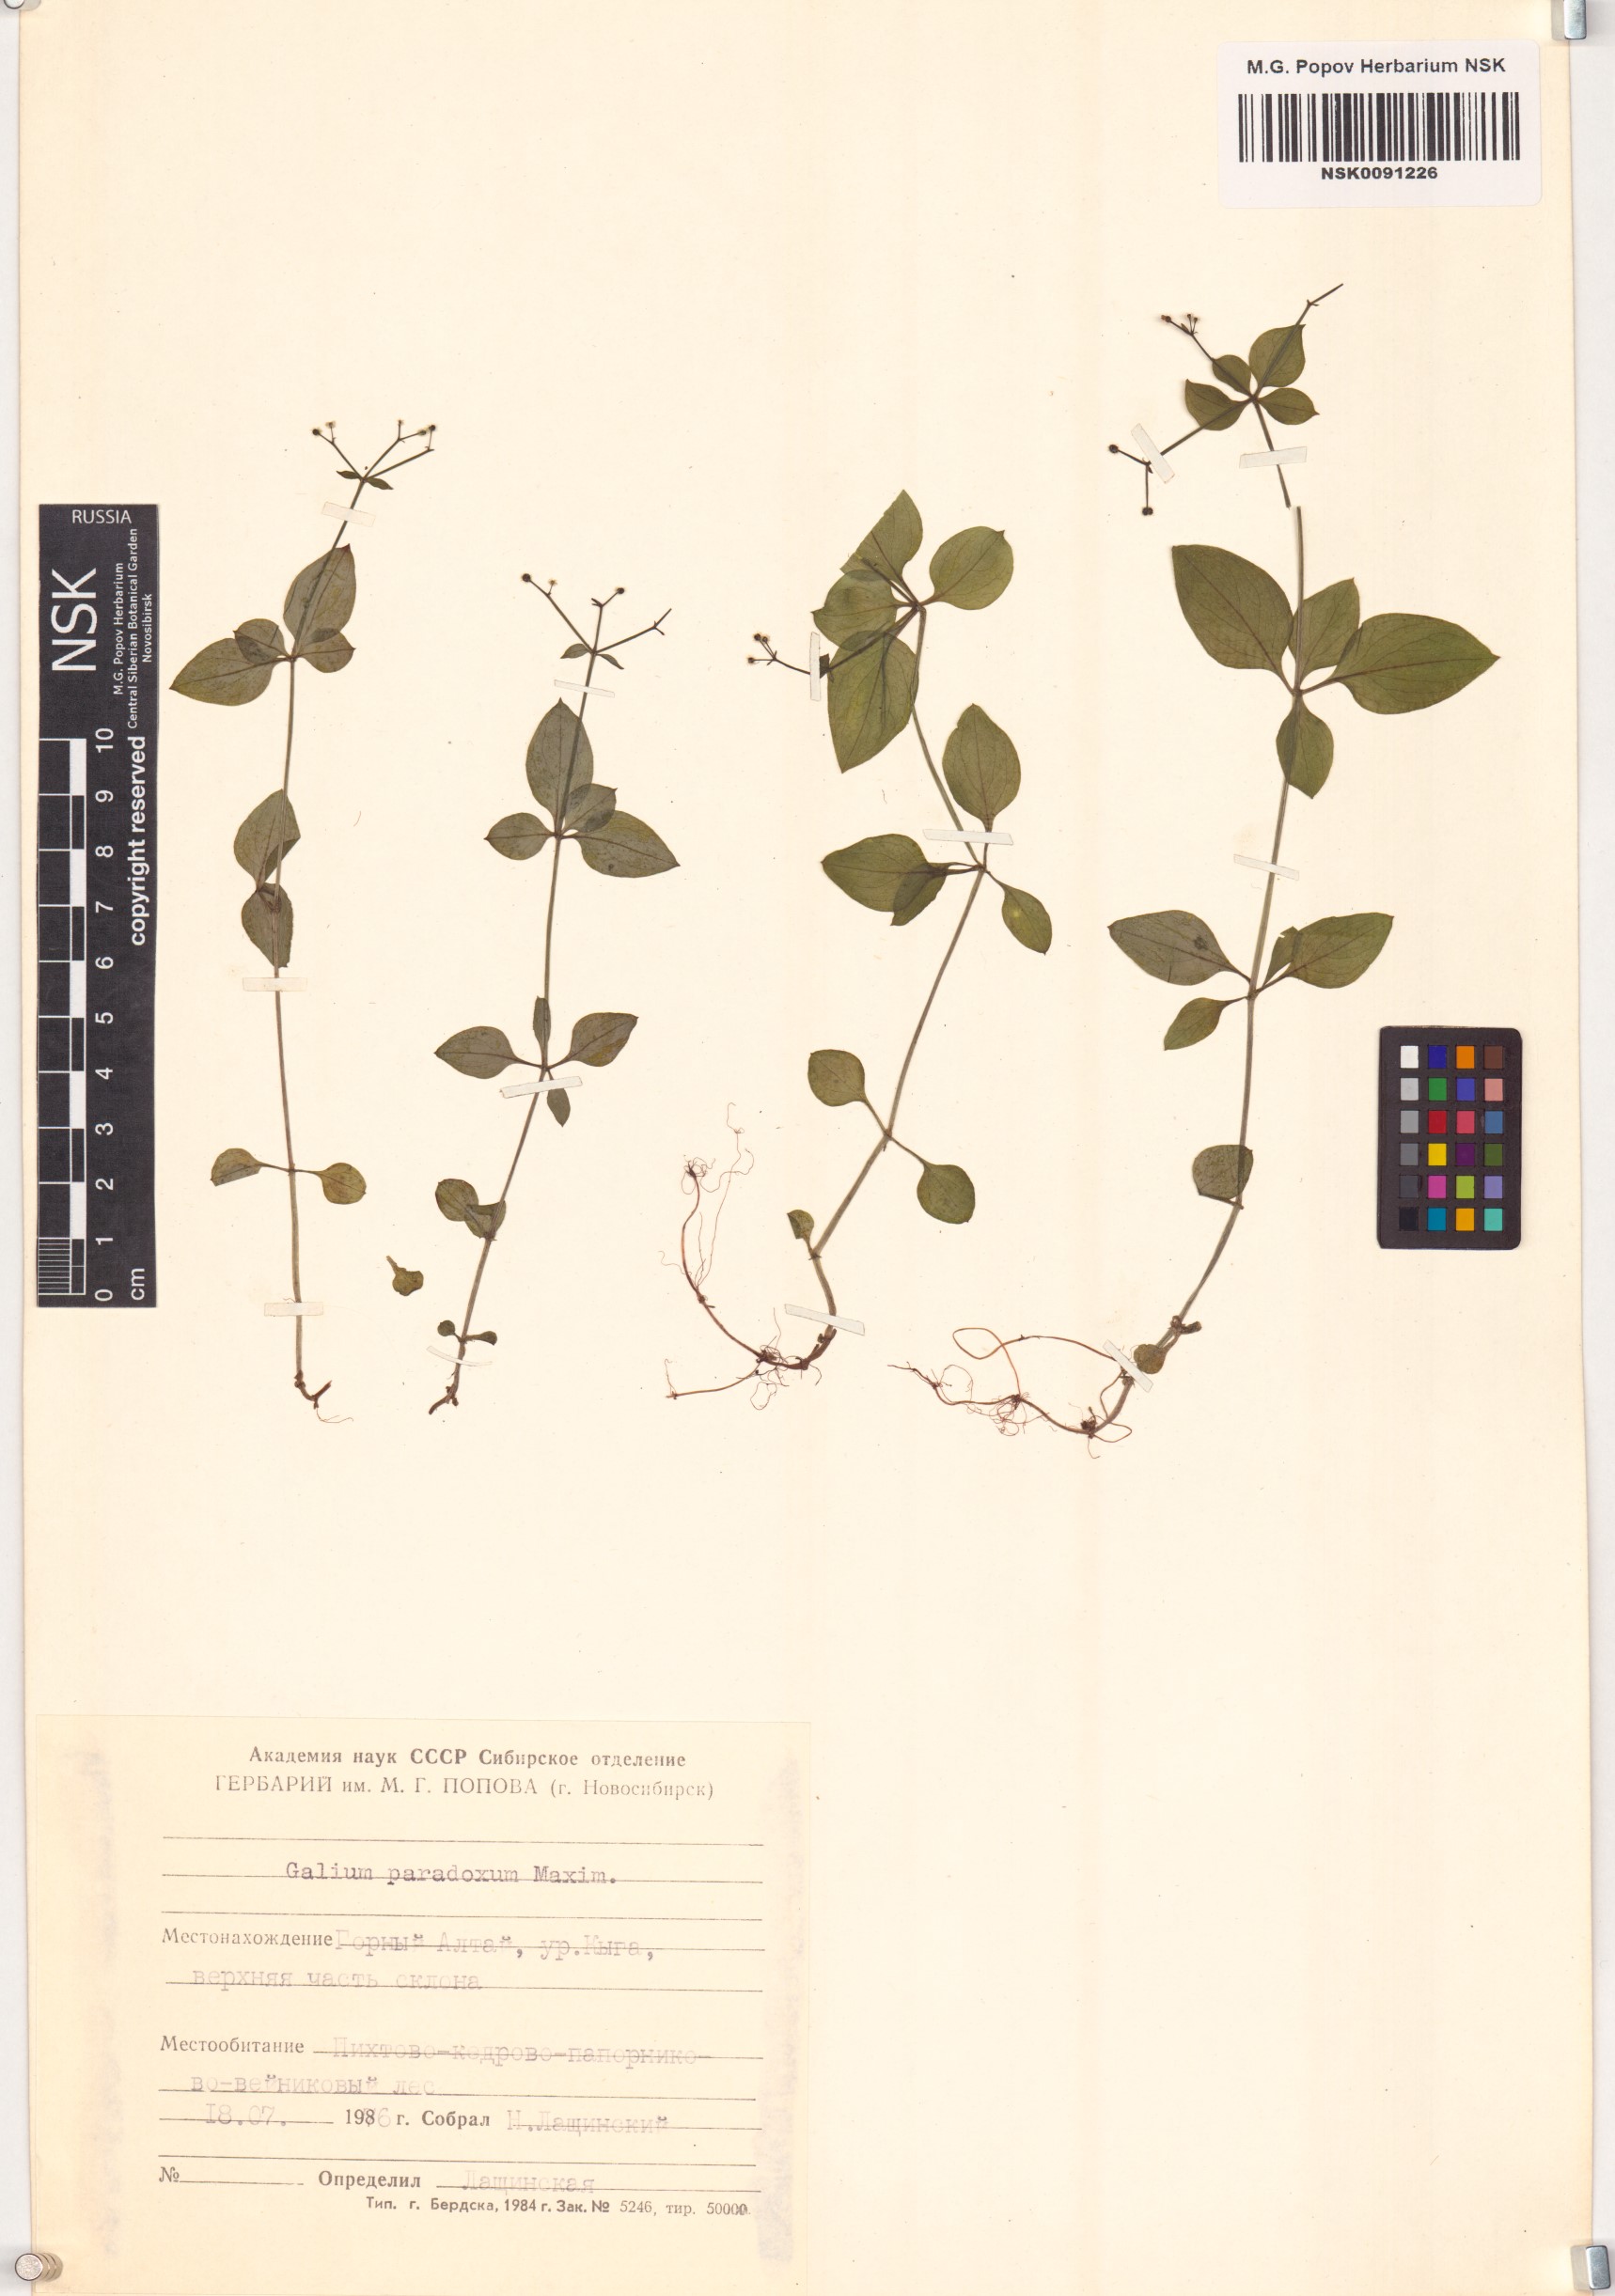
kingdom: Plantae
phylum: Tracheophyta
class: Magnoliopsida
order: Gentianales
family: Rubiaceae
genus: Pseudogalium
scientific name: Pseudogalium paradoxum
